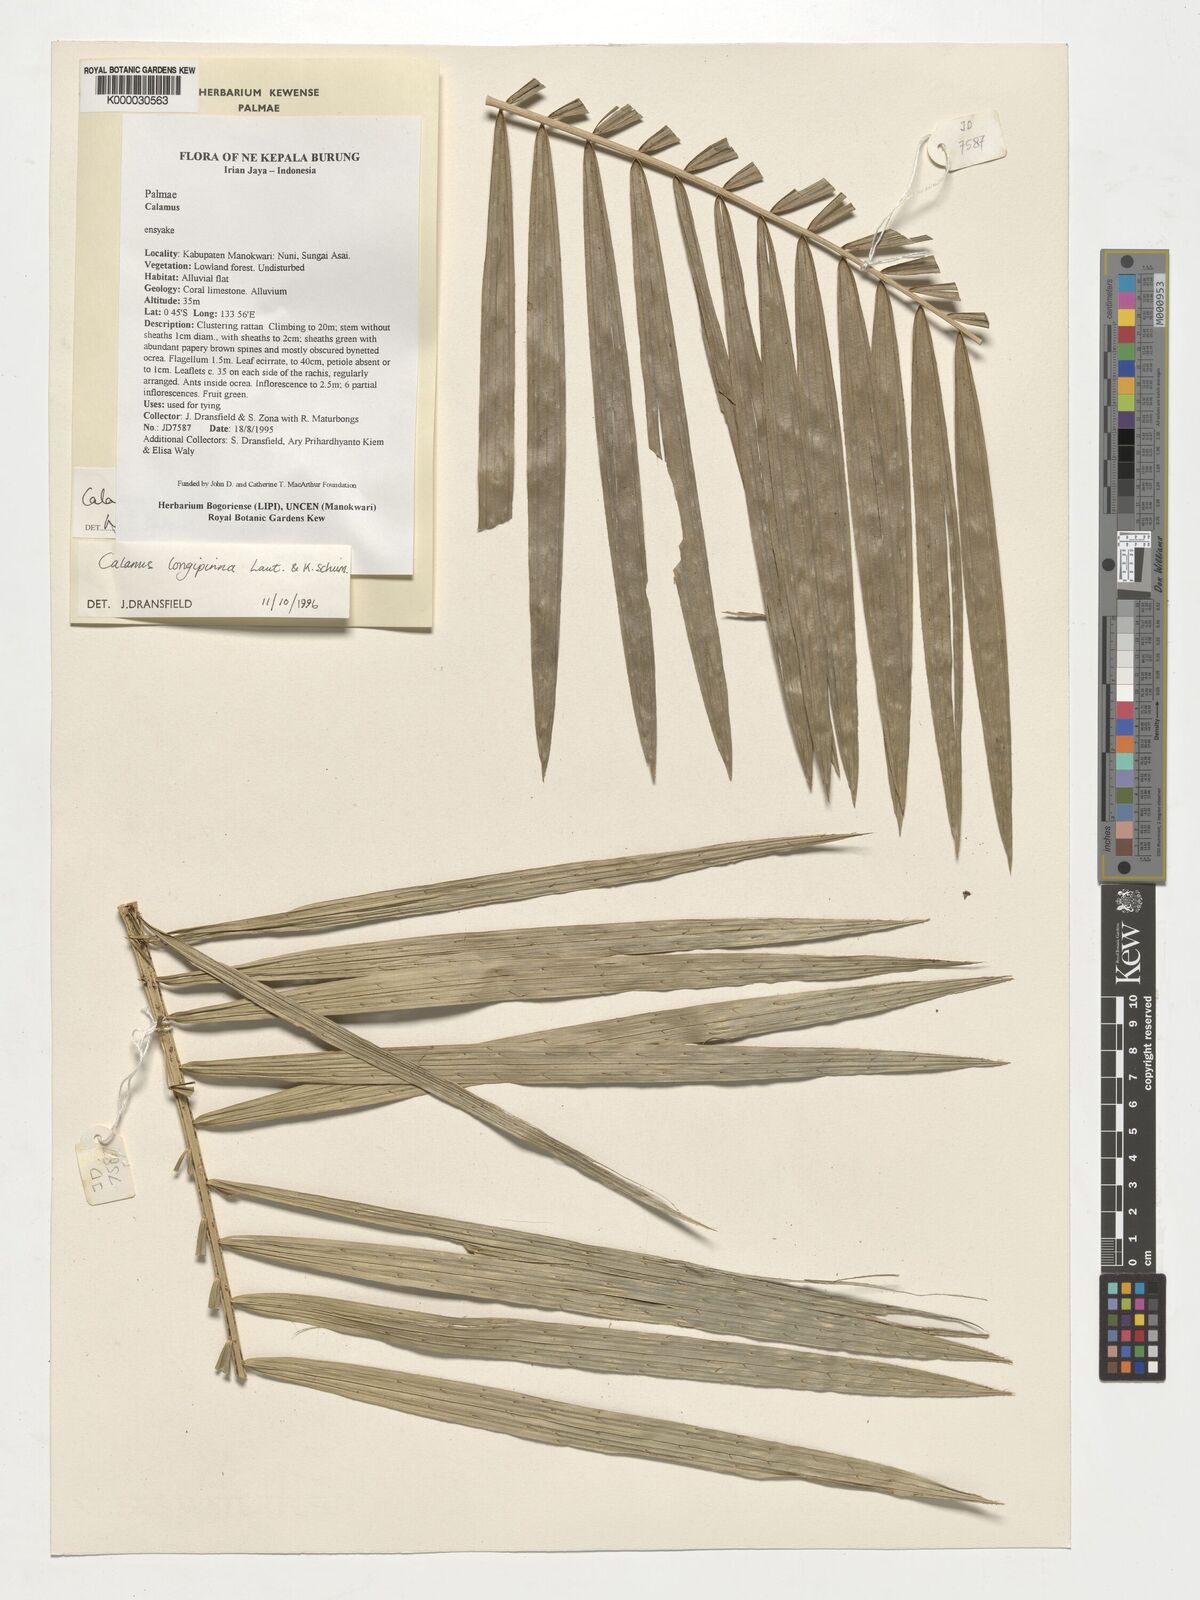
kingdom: Plantae
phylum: Tracheophyta
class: Liliopsida
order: Arecales
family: Arecaceae
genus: Calamus
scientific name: Calamus vestitus
